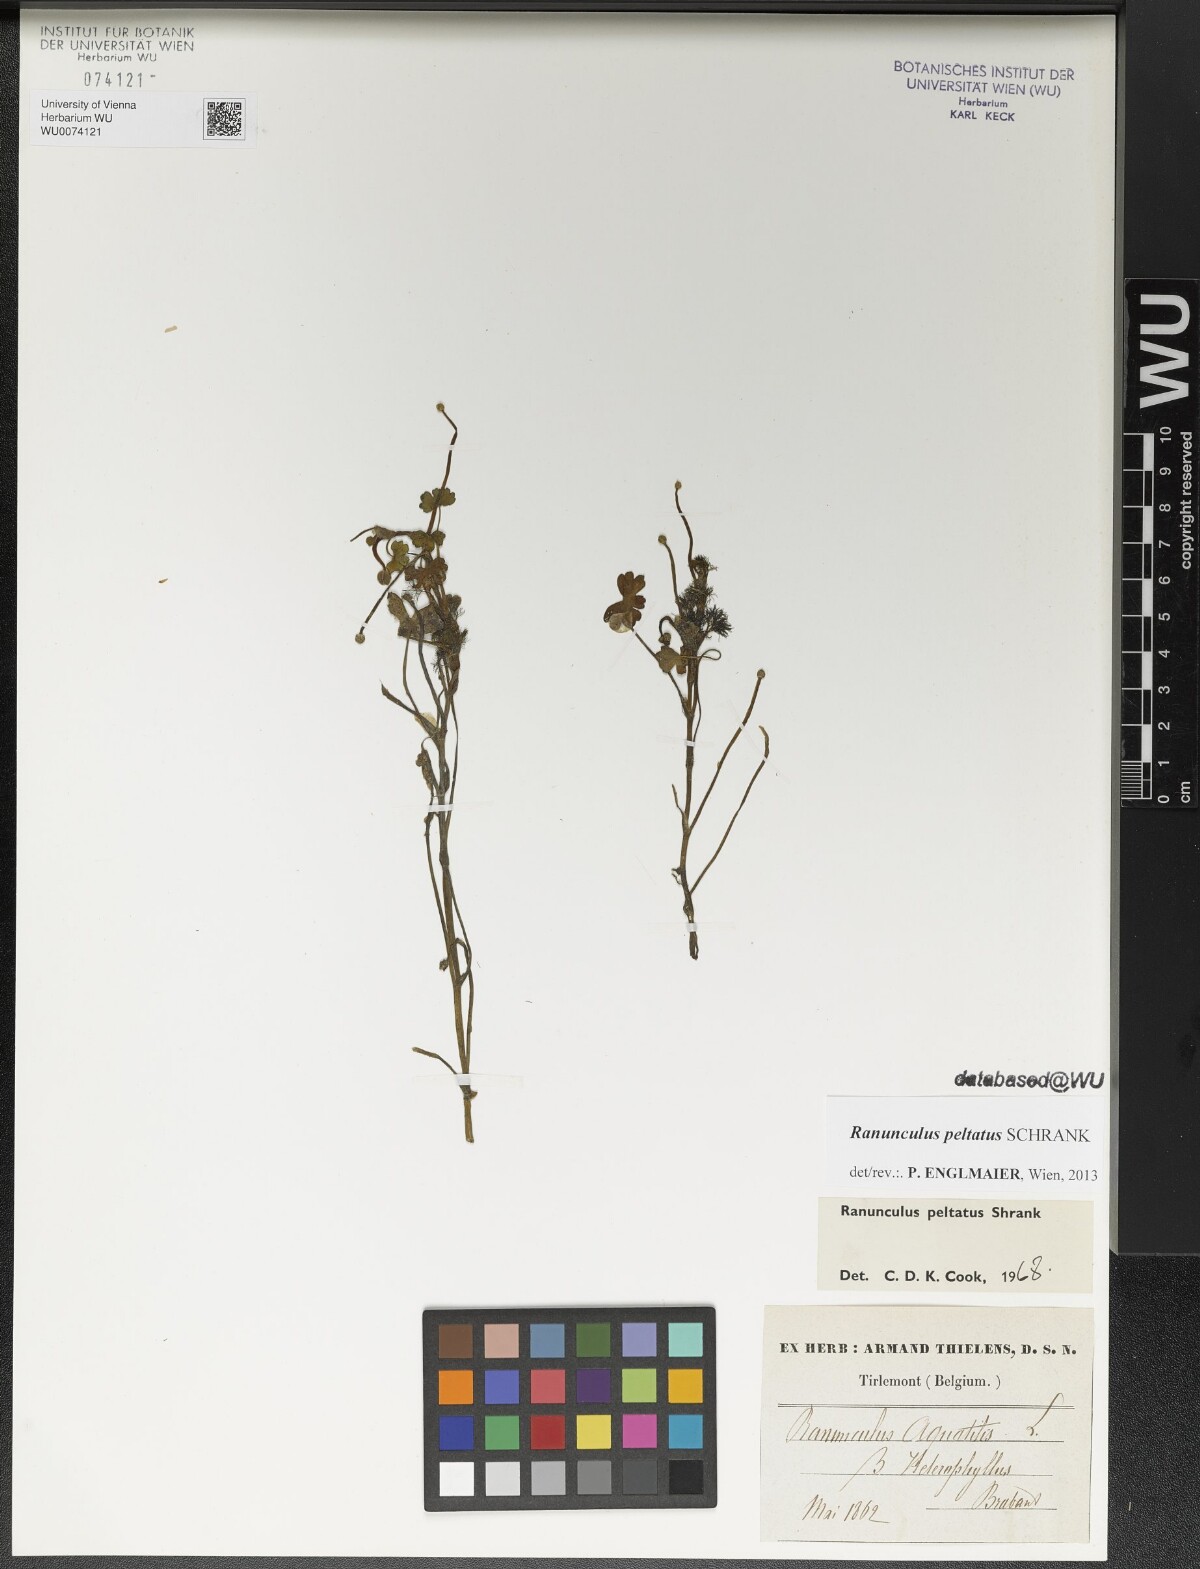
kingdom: Plantae
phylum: Tracheophyta
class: Magnoliopsida
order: Ranunculales
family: Ranunculaceae
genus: Ranunculus
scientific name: Ranunculus peltatus
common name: Pond water-crowfoot
